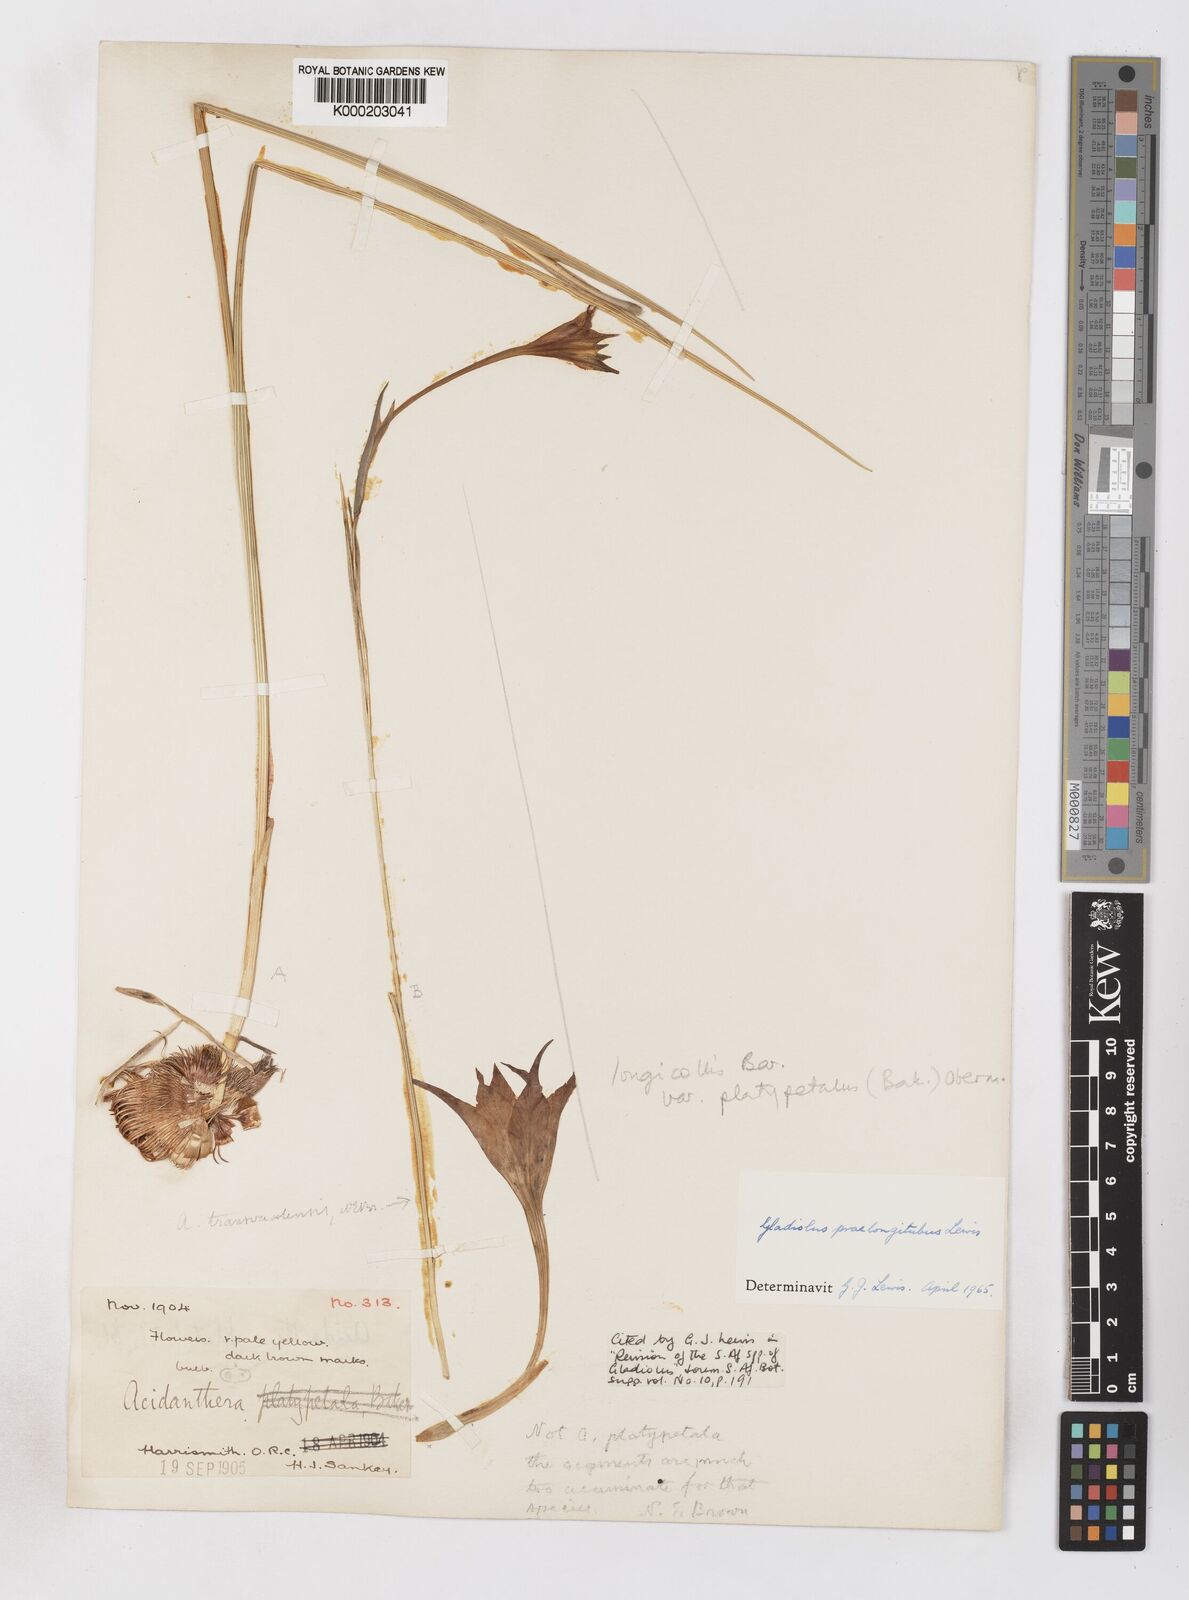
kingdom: Plantae
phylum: Tracheophyta
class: Liliopsida
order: Asparagales
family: Iridaceae
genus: Gladiolus
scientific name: Gladiolus longicollis
